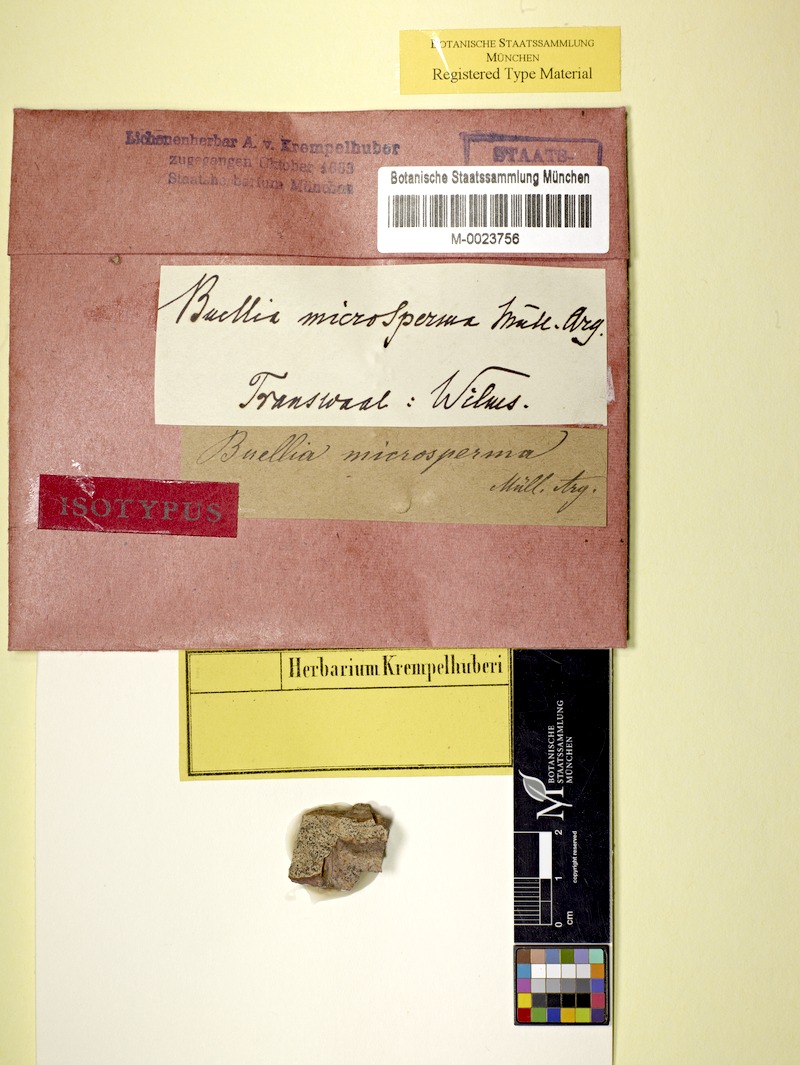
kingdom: Fungi
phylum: Ascomycota
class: Dothideomycetes
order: Abrothallales
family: Abrothallaceae
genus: Abrothallus
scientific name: Abrothallus microspermus
